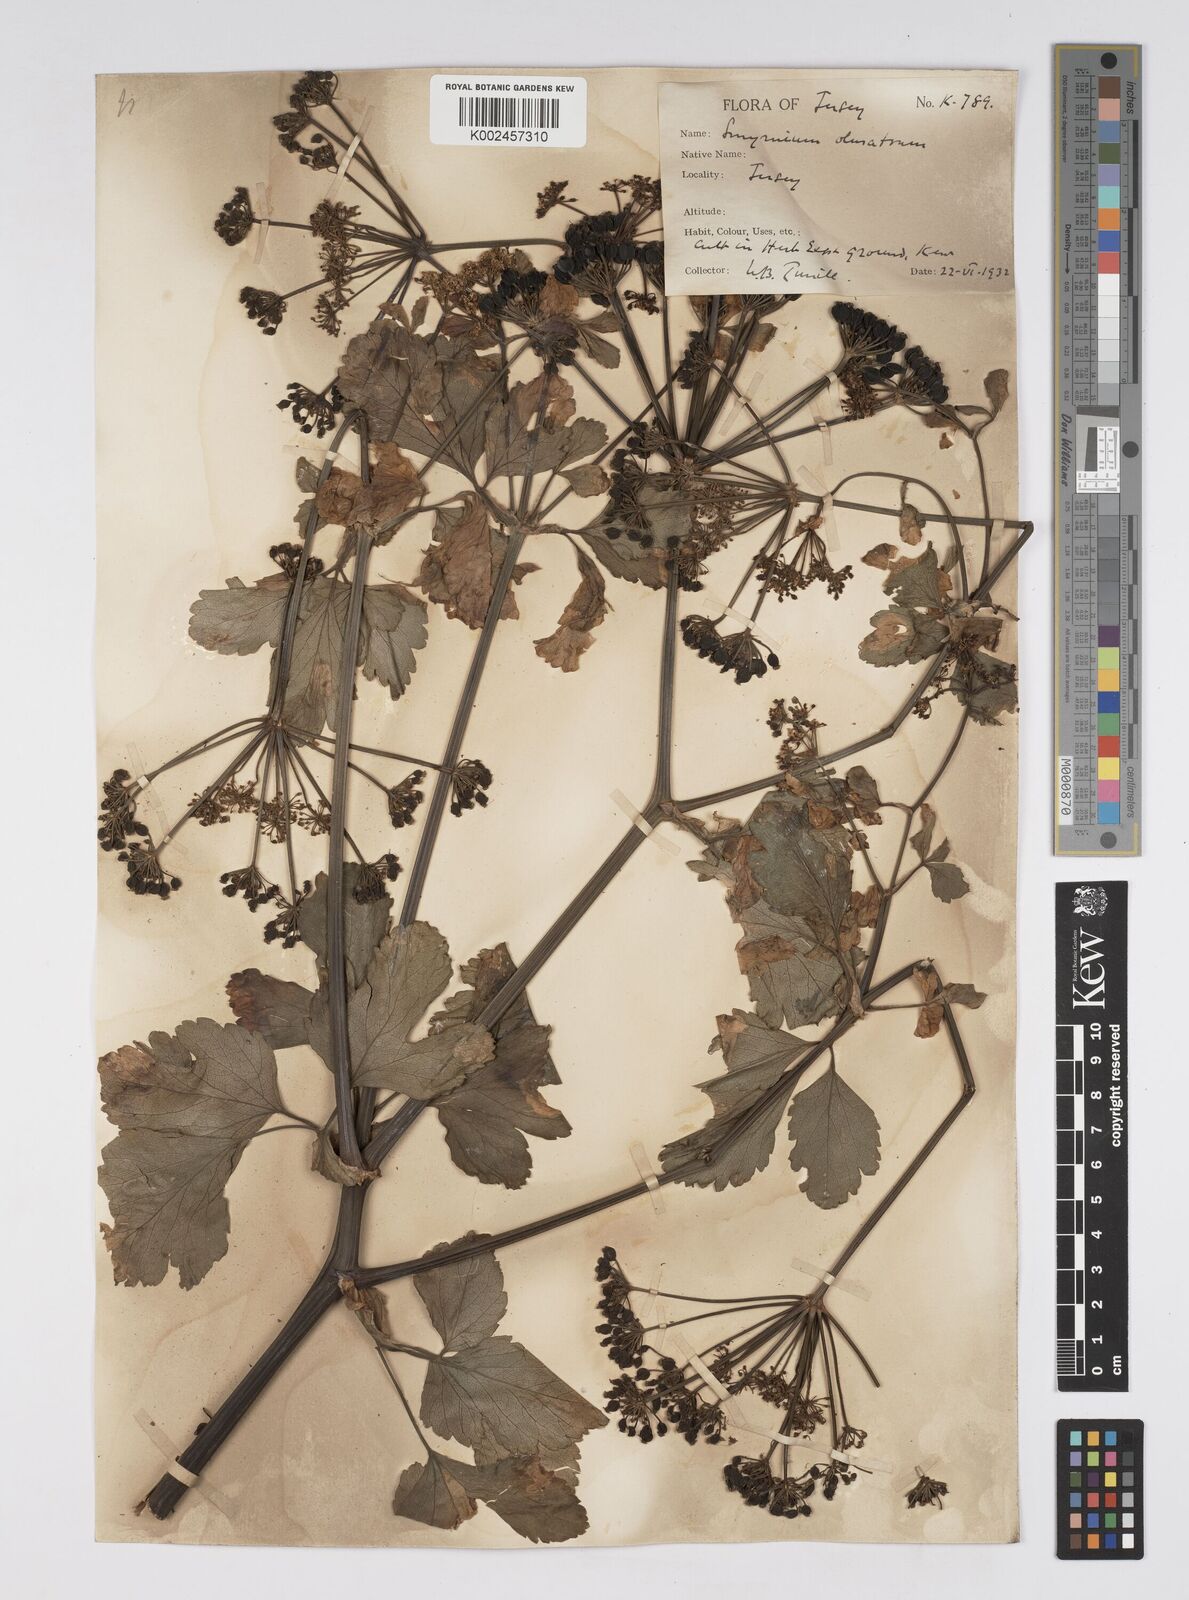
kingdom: Plantae
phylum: Tracheophyta
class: Magnoliopsida
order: Apiales
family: Apiaceae
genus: Smyrnium
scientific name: Smyrnium olusatrum
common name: Alexanders
